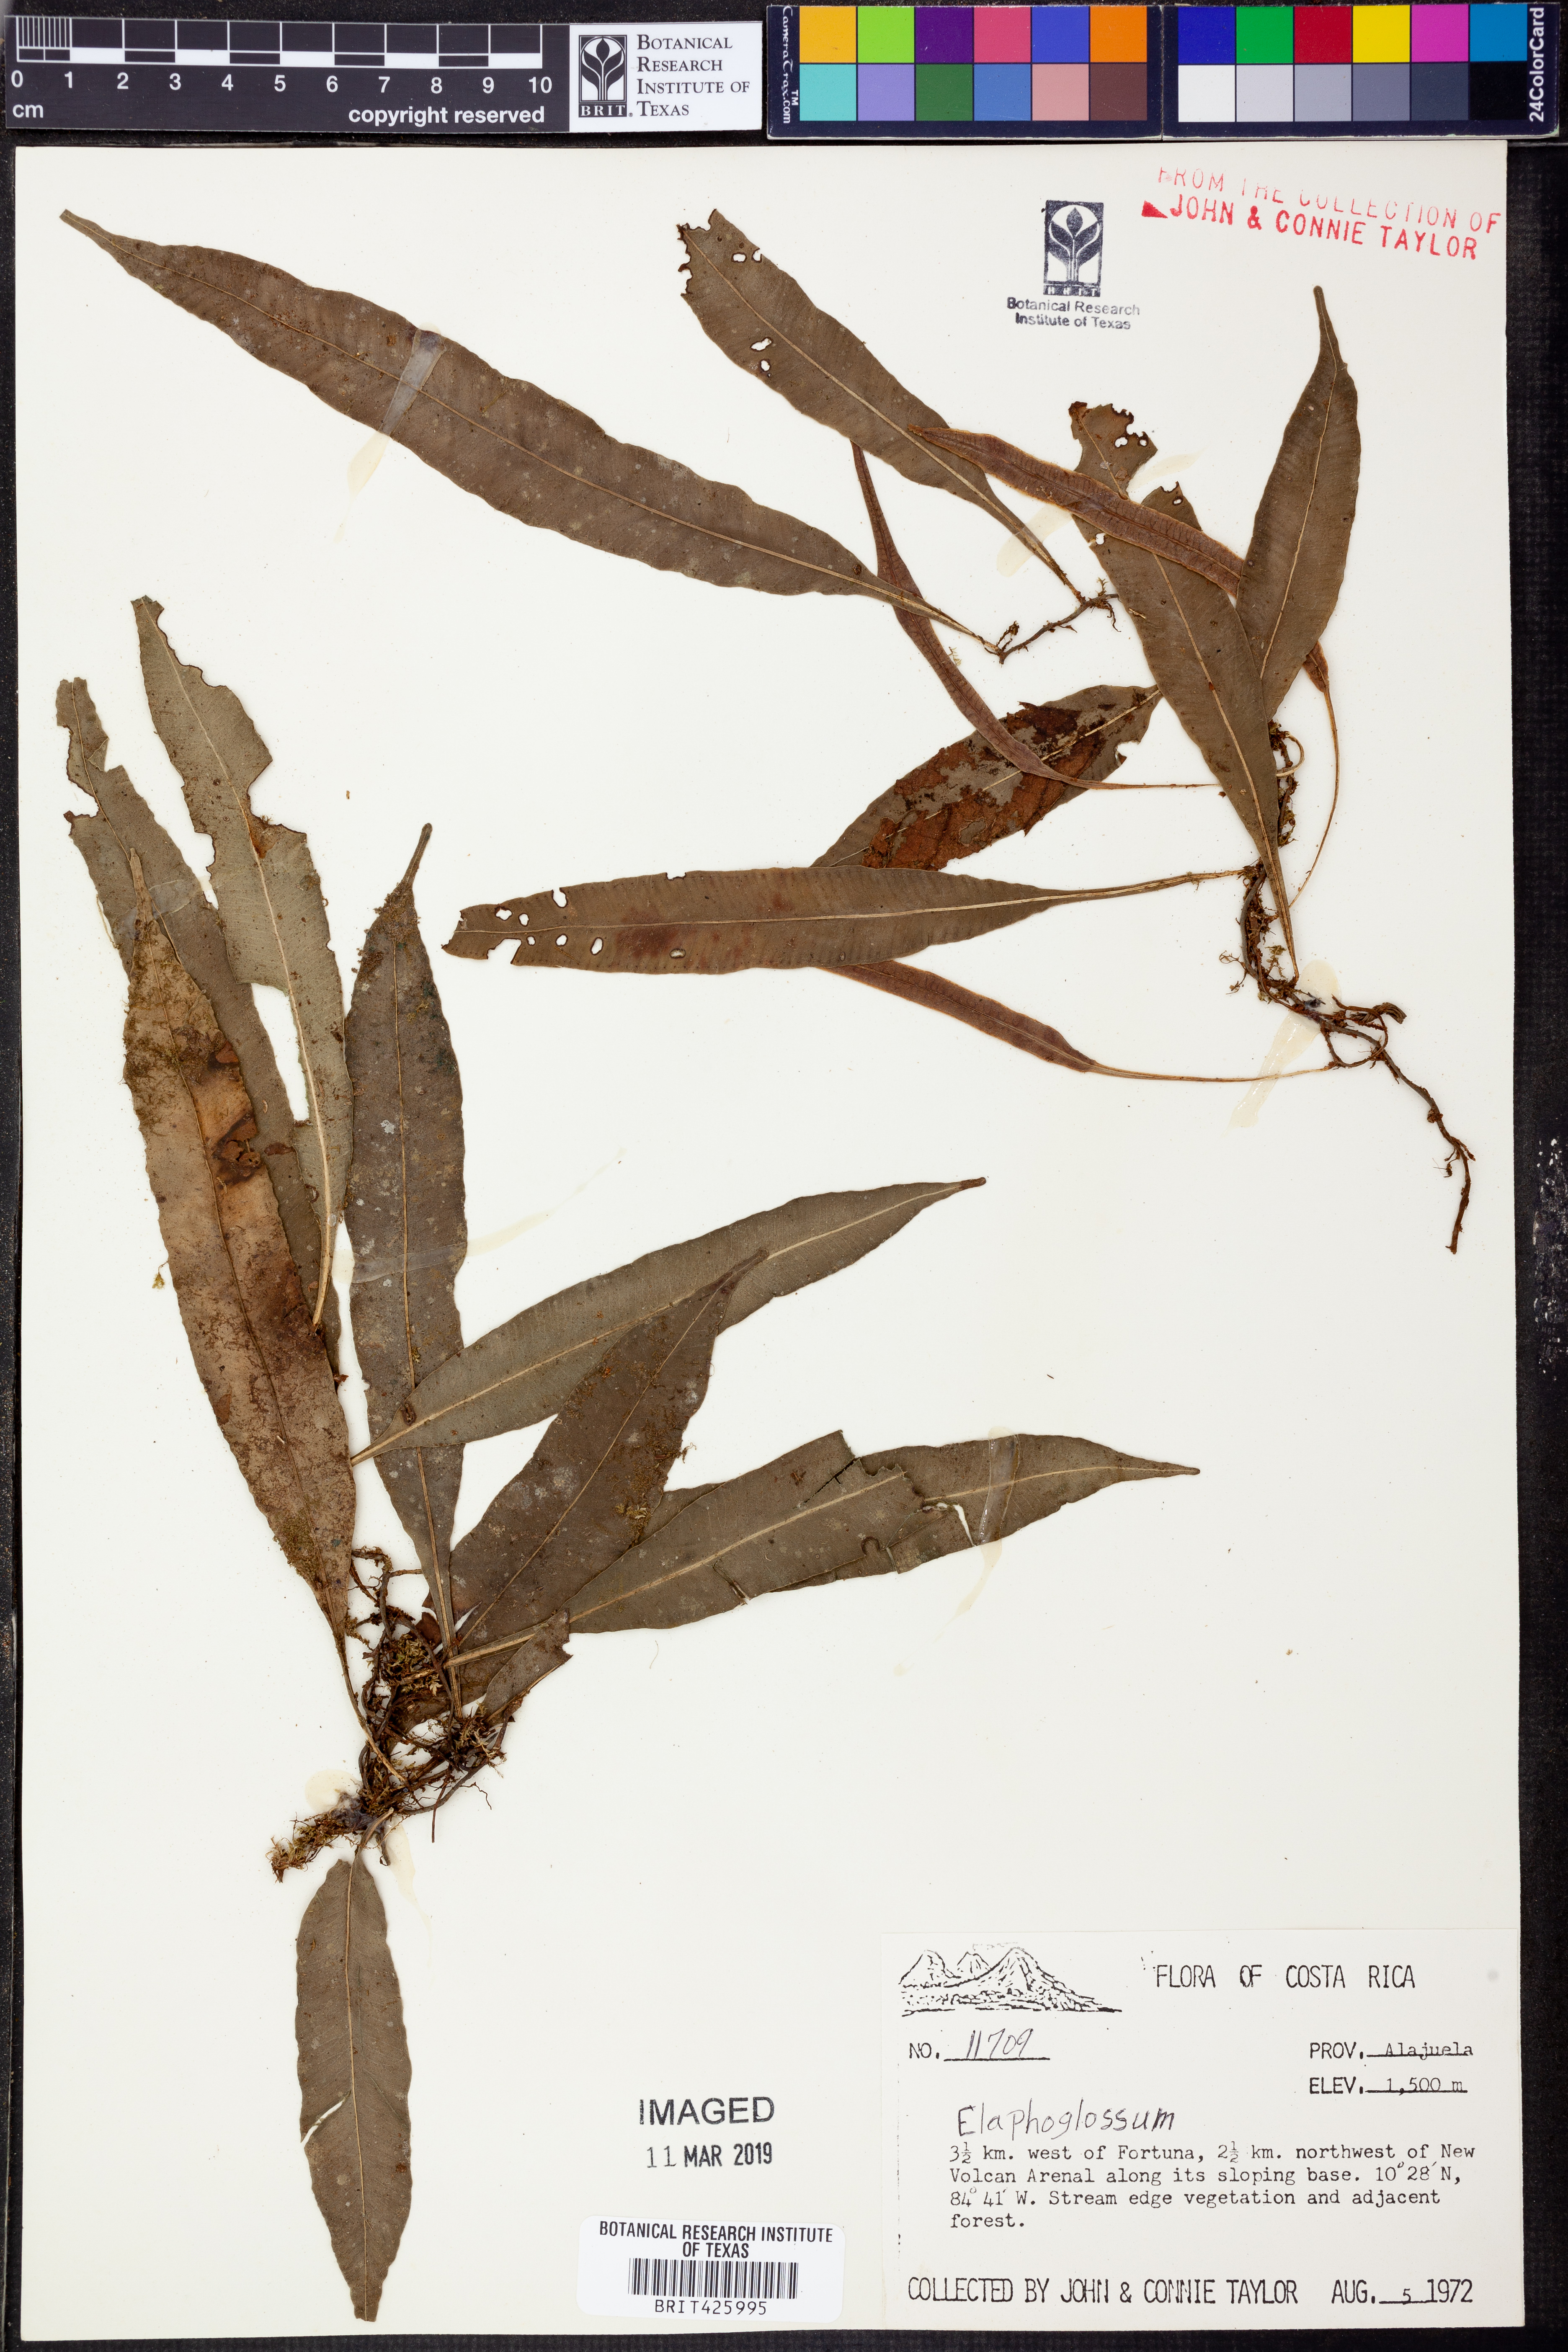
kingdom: Plantae
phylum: Tracheophyta
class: Polypodiopsida
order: Polypodiales
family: Dryopteridaceae
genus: Elaphoglossum
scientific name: Elaphoglossum amygdalifolium
